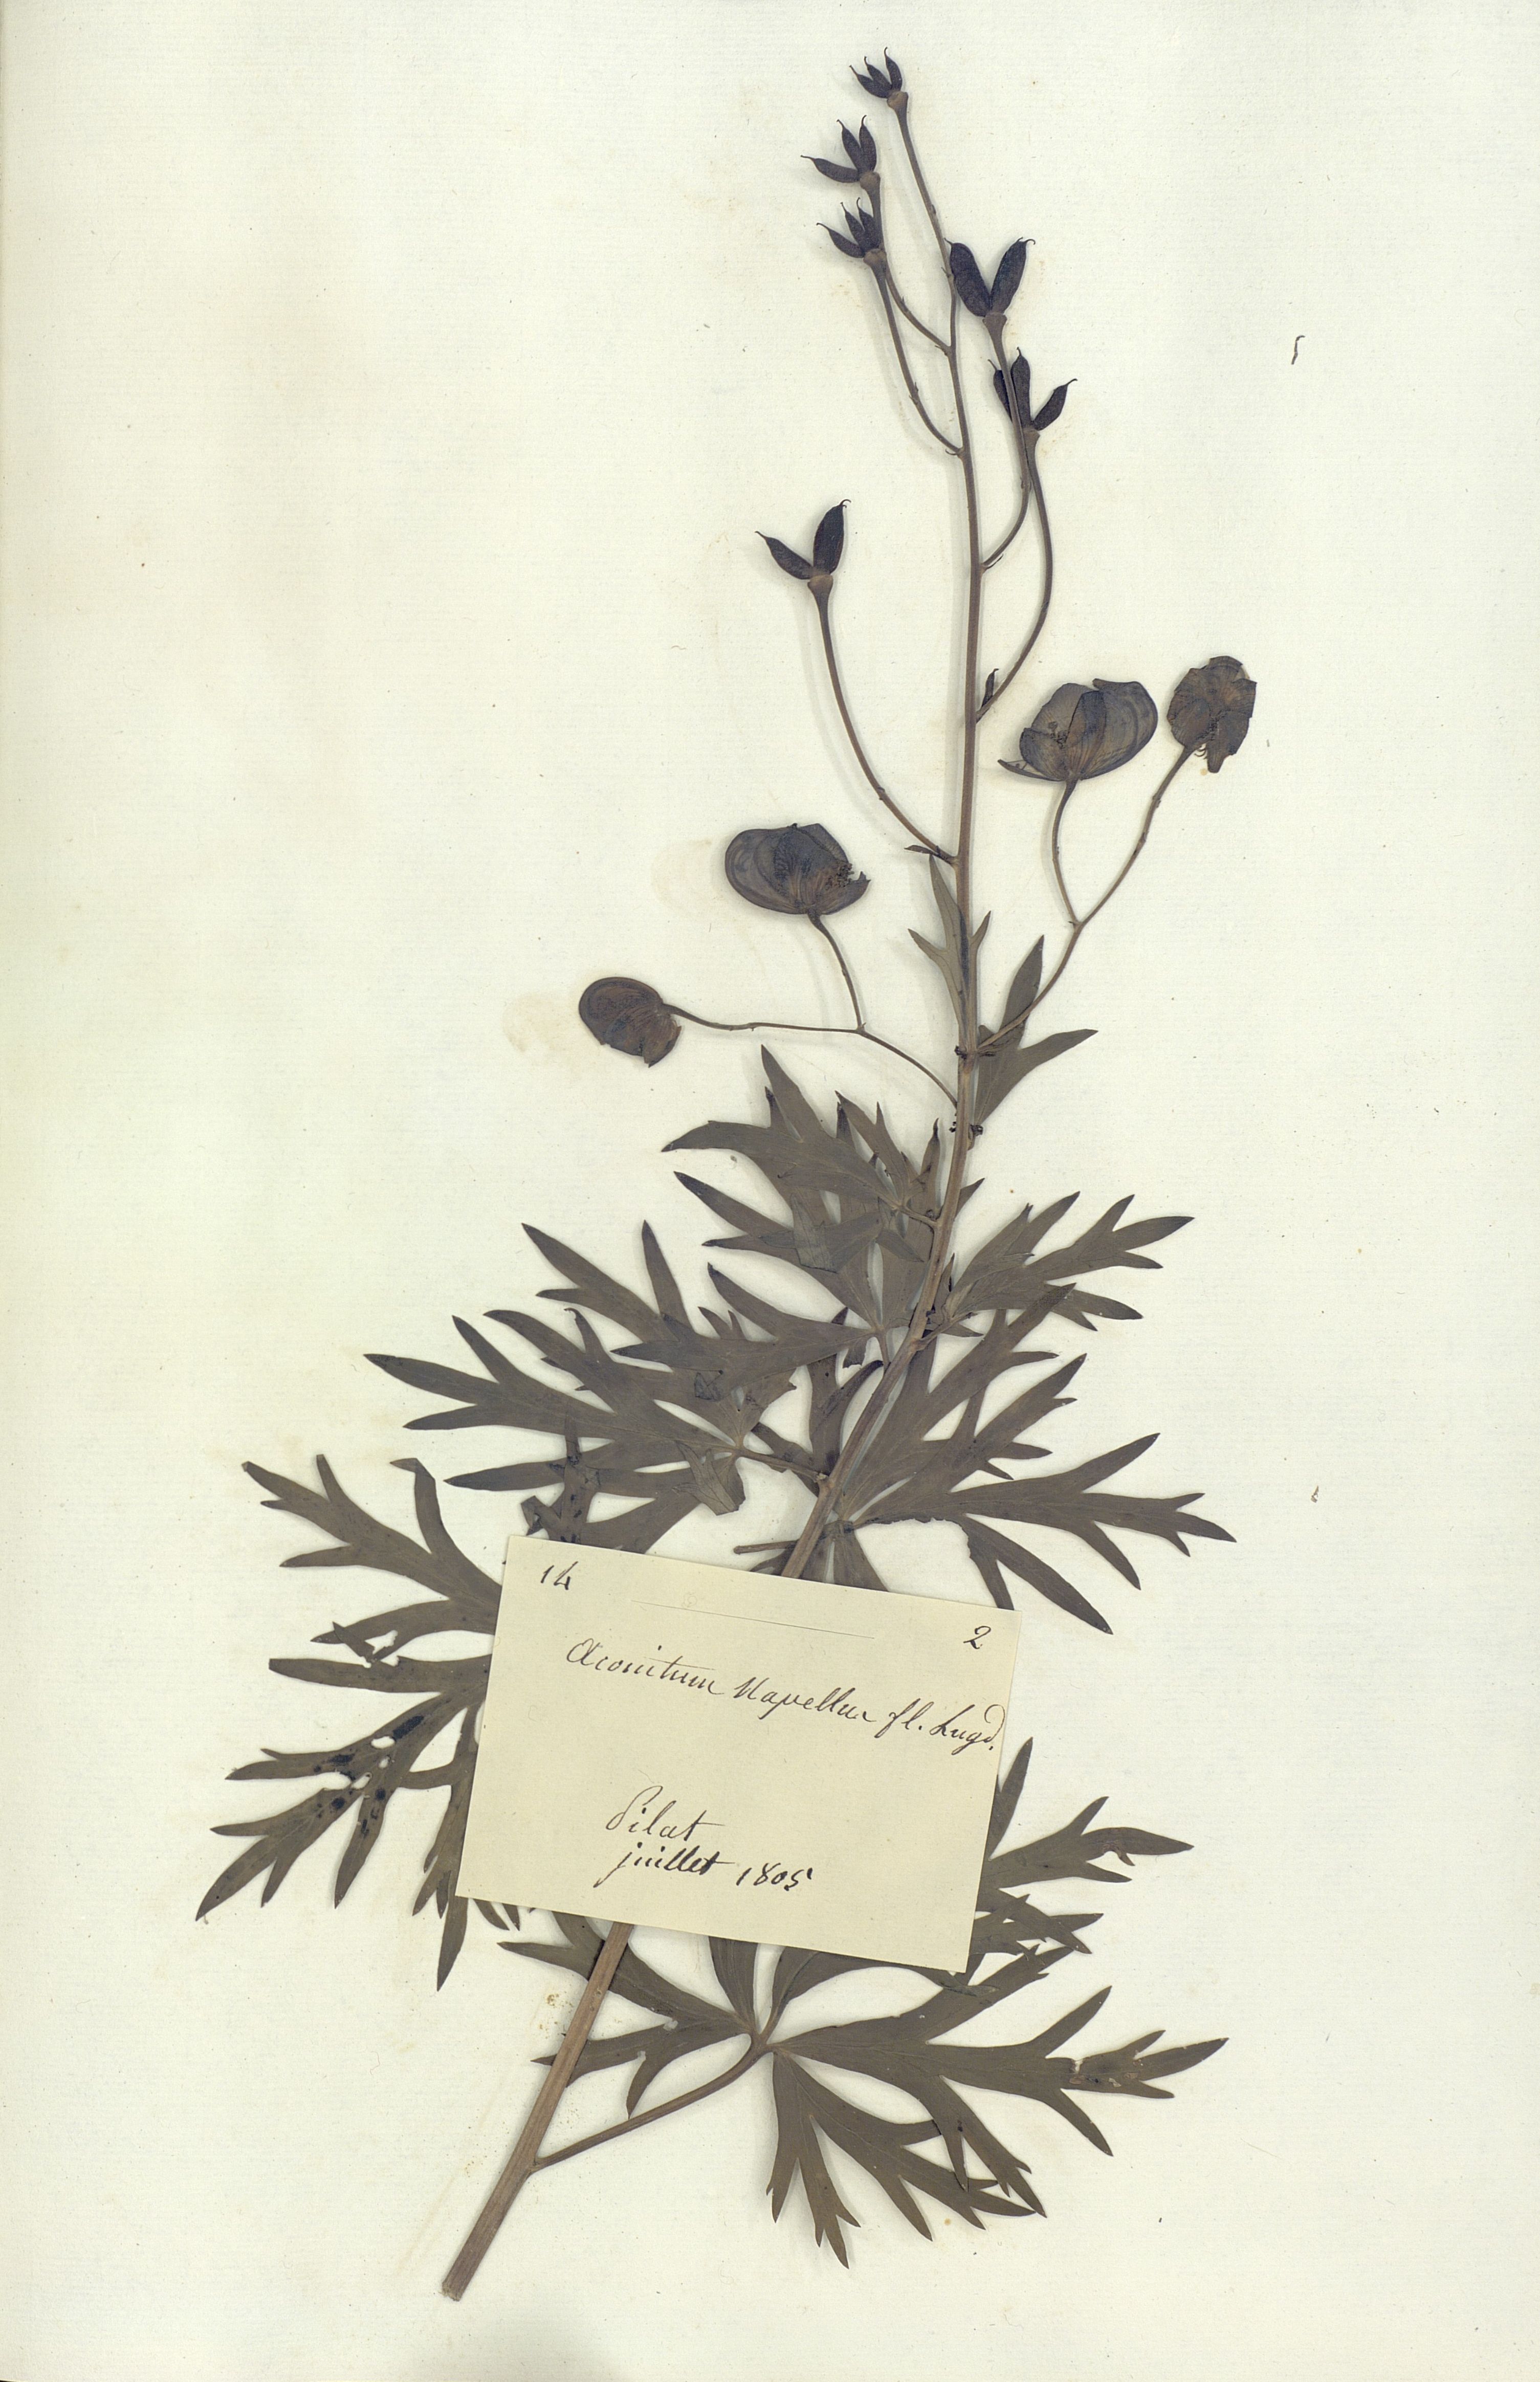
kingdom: Plantae
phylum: Tracheophyta
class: Magnoliopsida
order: Ranunculales
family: Ranunculaceae
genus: Aconitum
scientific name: Aconitum napellus
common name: Garden monkshood
